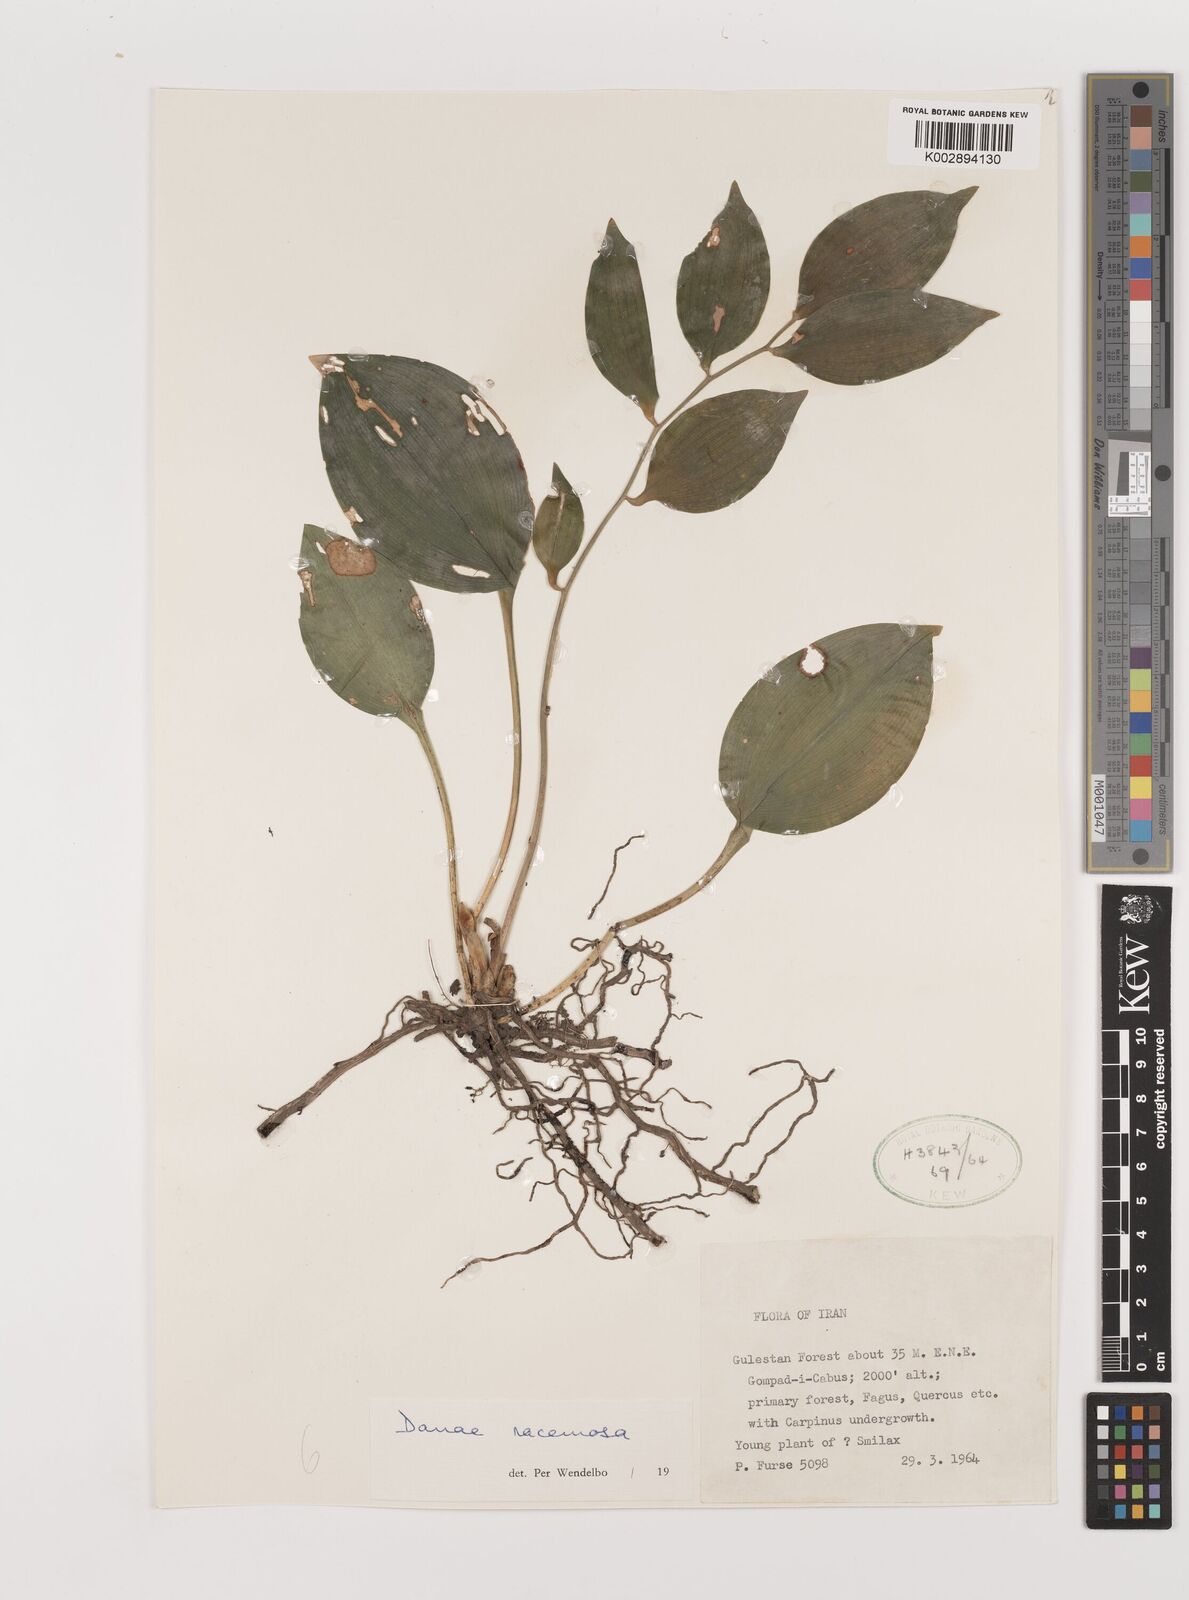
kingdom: Plantae
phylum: Tracheophyta
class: Liliopsida
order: Asparagales
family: Asparagaceae
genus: Ruscus
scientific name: Ruscus hypophyllum
